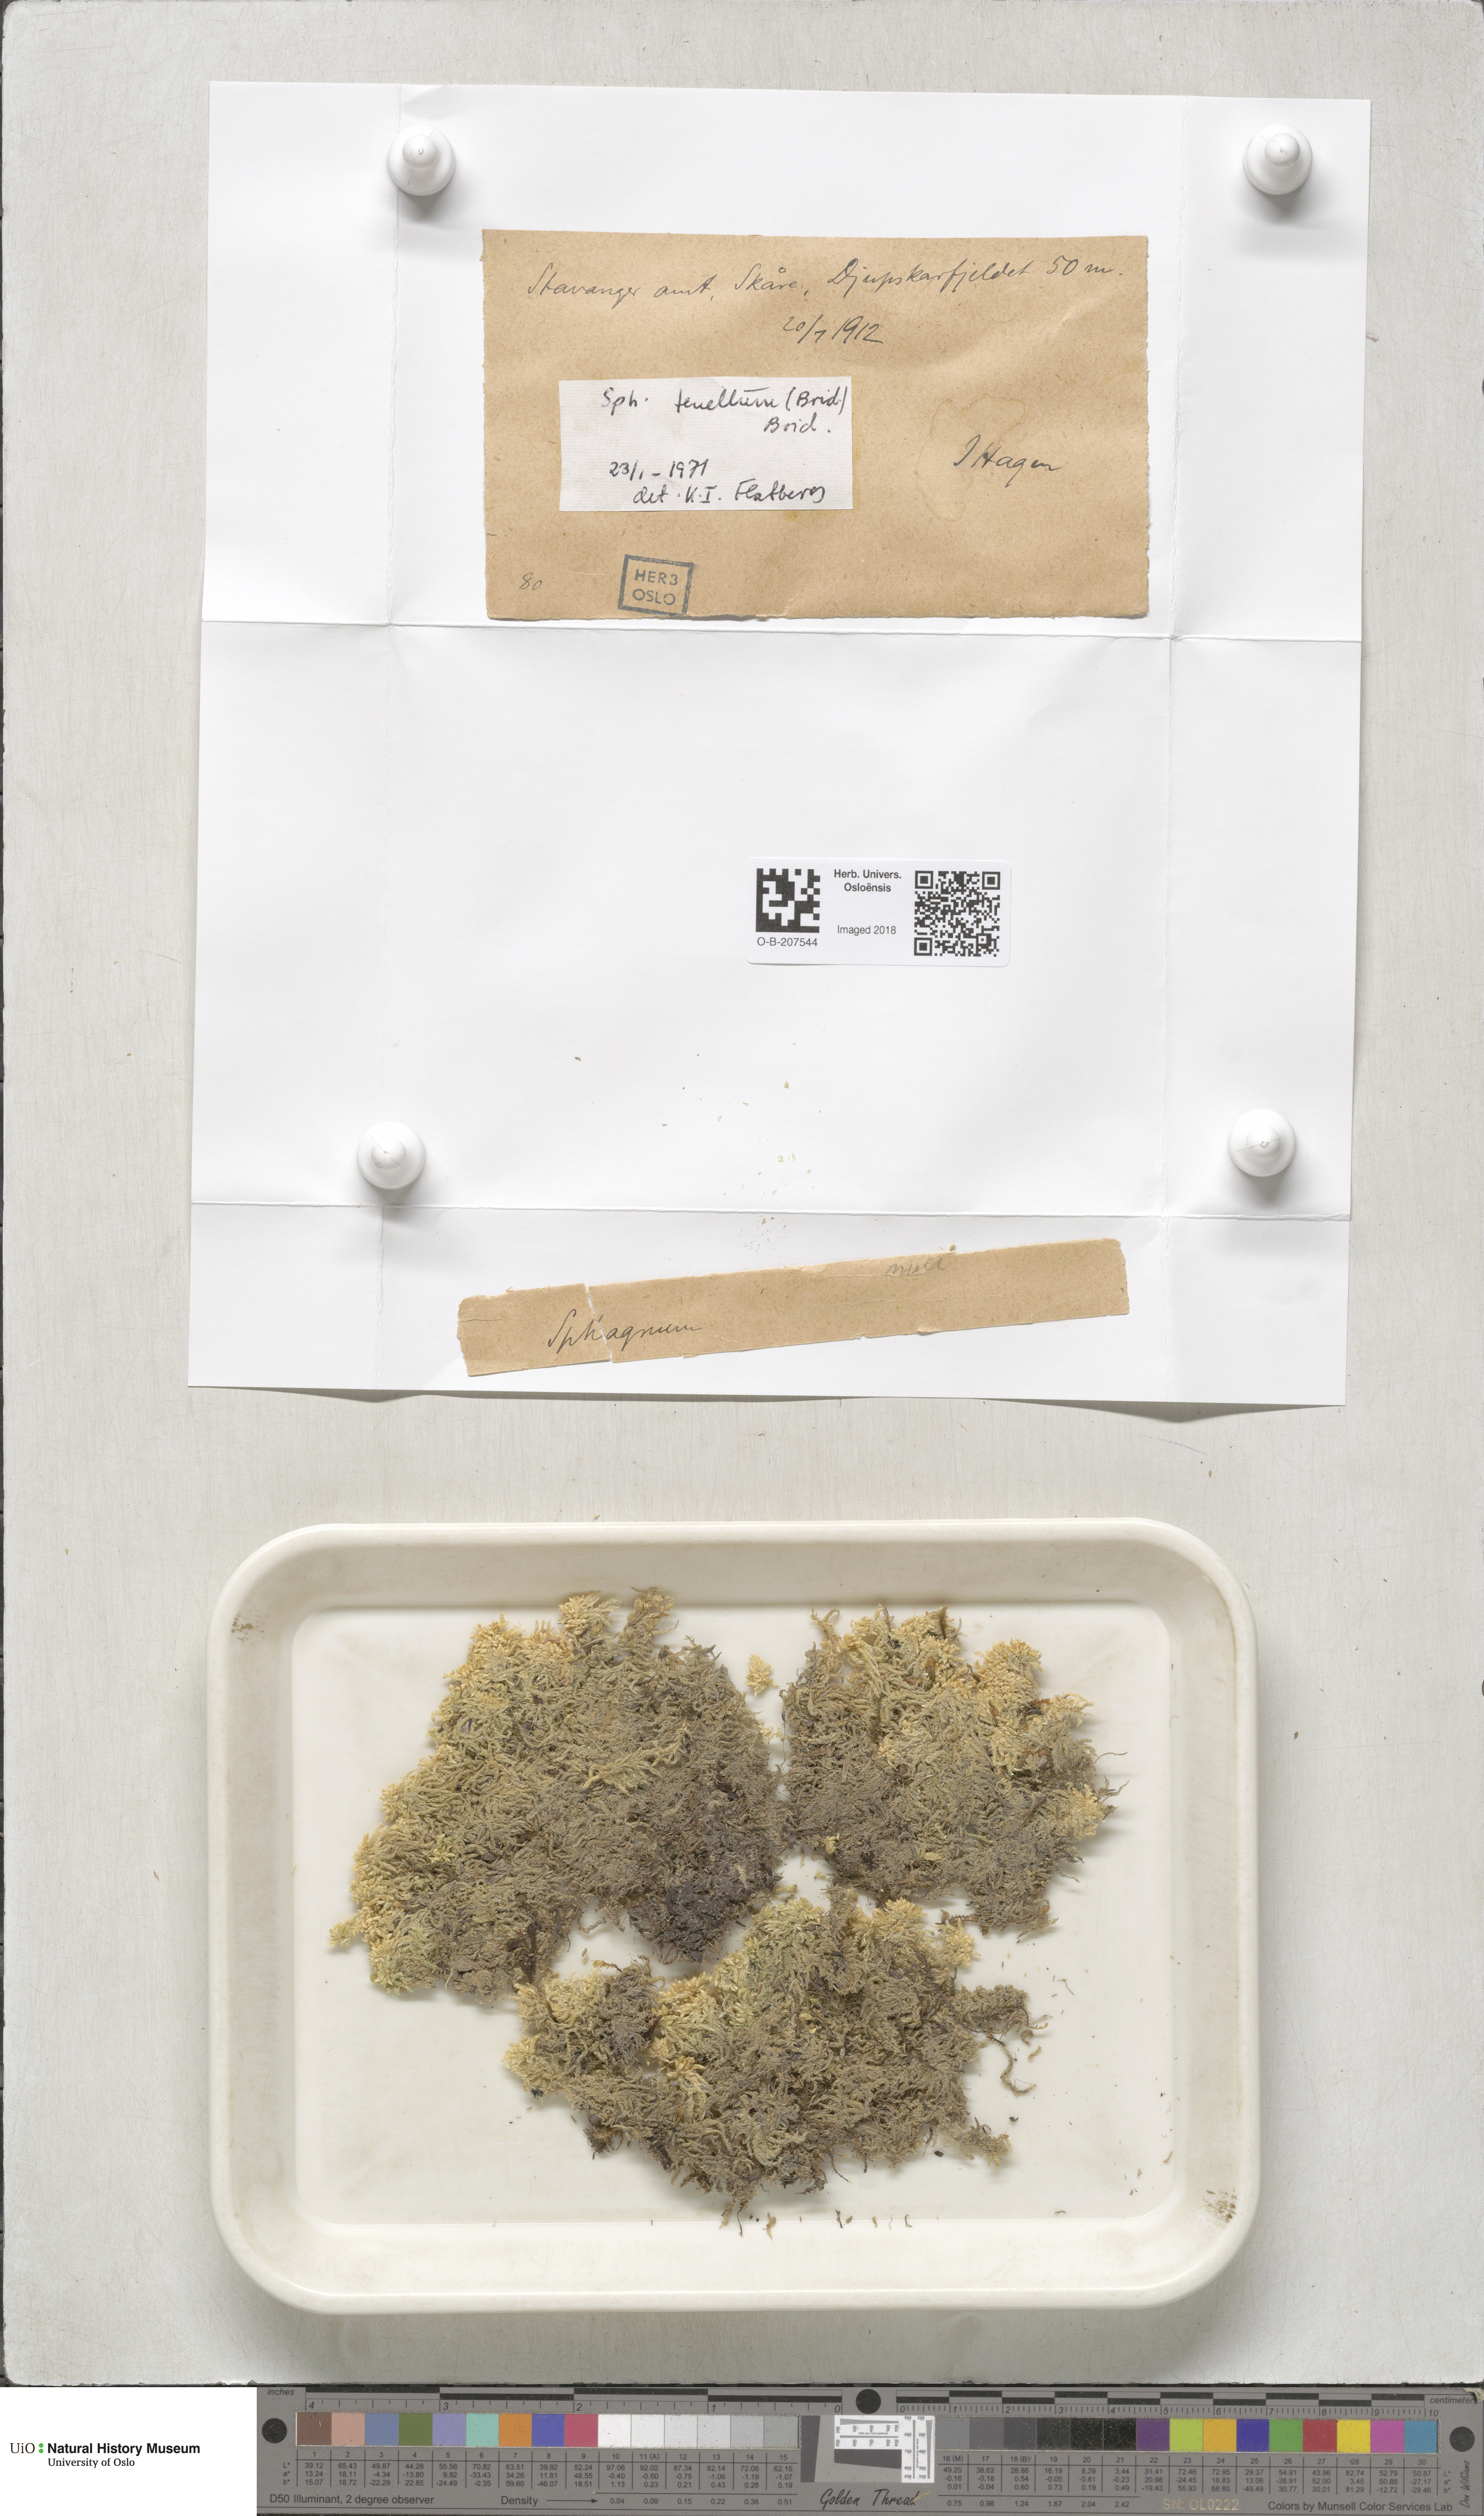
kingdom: Plantae
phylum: Bryophyta
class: Sphagnopsida
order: Sphagnales
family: Sphagnaceae
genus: Sphagnum
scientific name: Sphagnum tenellum
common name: Soft bog-moss
